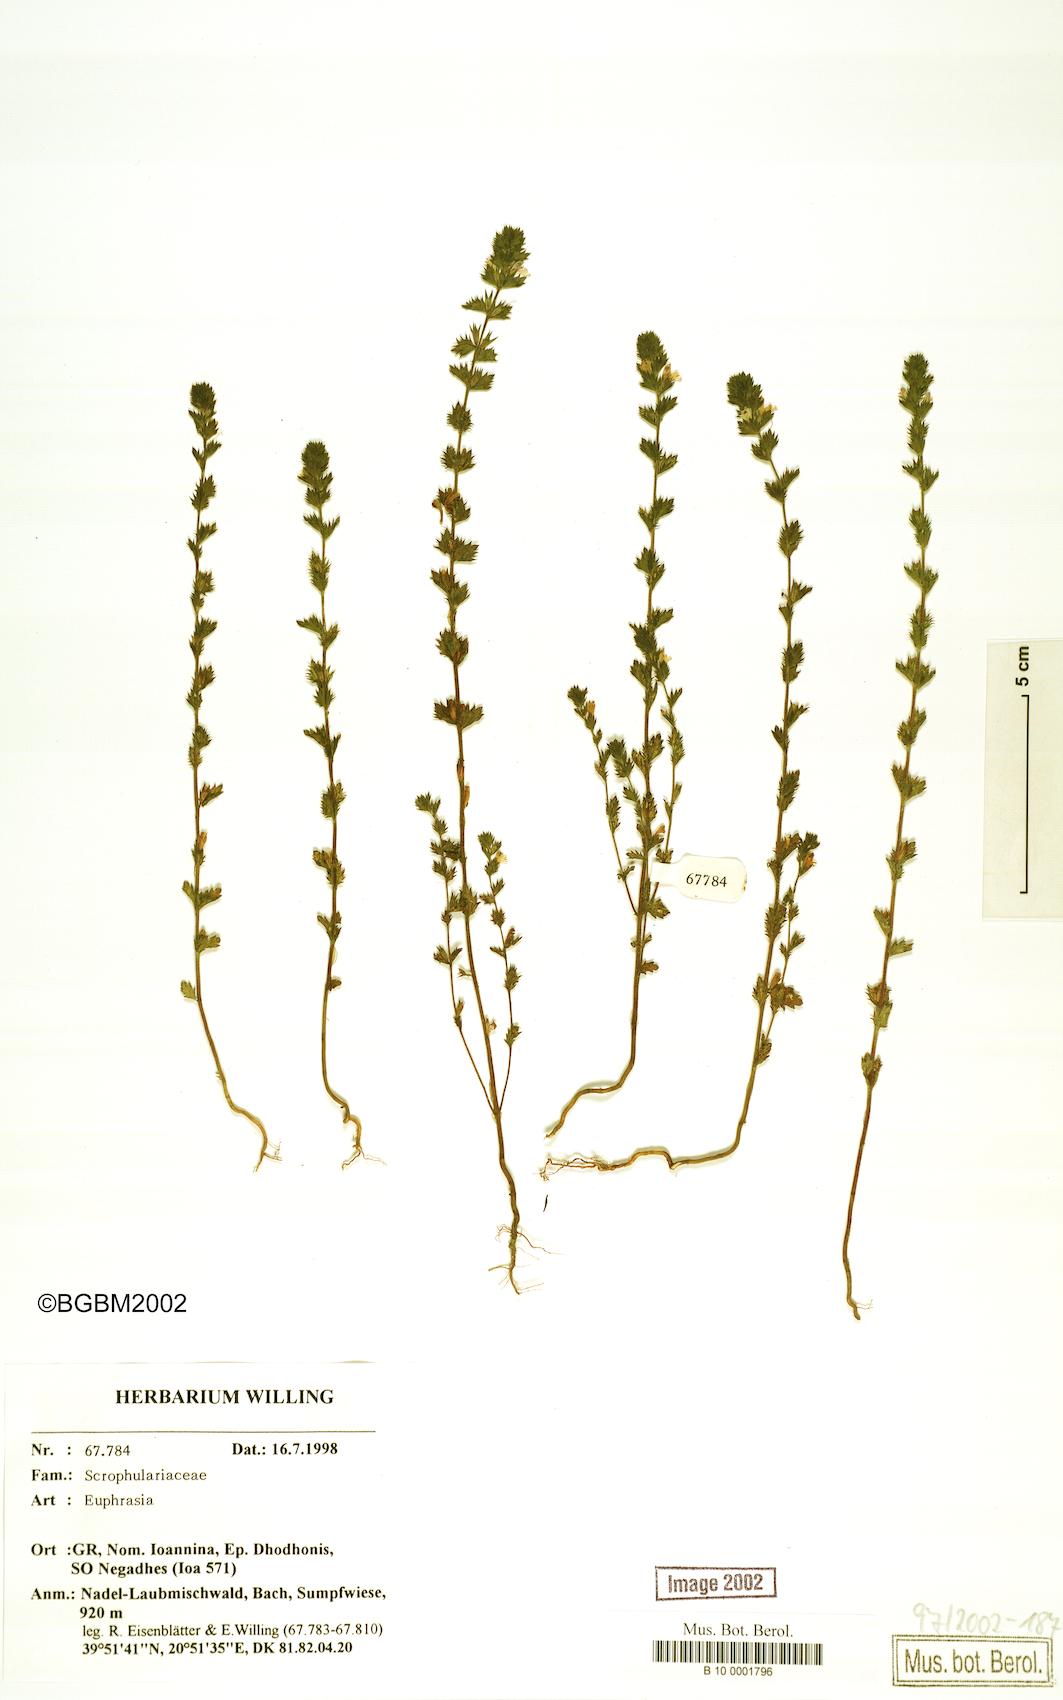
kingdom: Plantae
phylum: Tracheophyta
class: Magnoliopsida
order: Lamiales
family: Orobanchaceae
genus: Euphrasia
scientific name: Euphrasia
